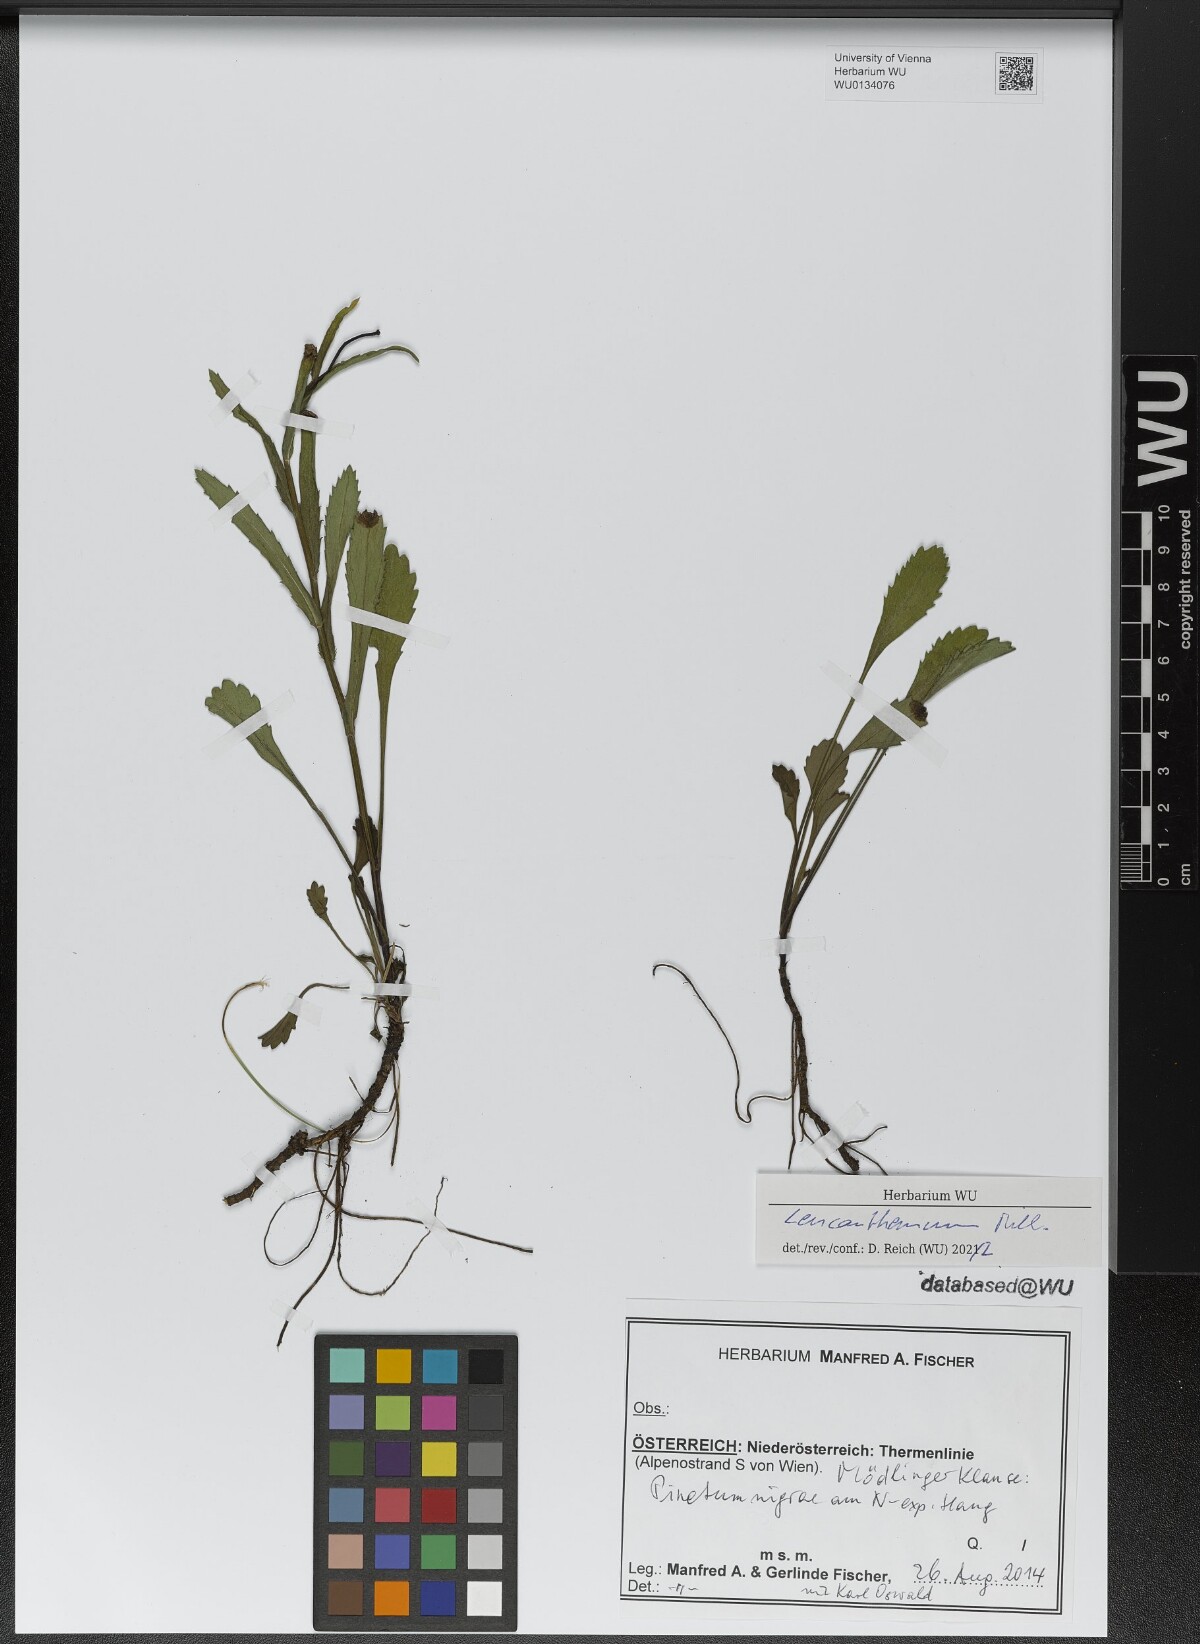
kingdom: Plantae
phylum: Tracheophyta
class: Magnoliopsida
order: Asterales
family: Asteraceae
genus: Leucanthemum
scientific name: Leucanthemum
